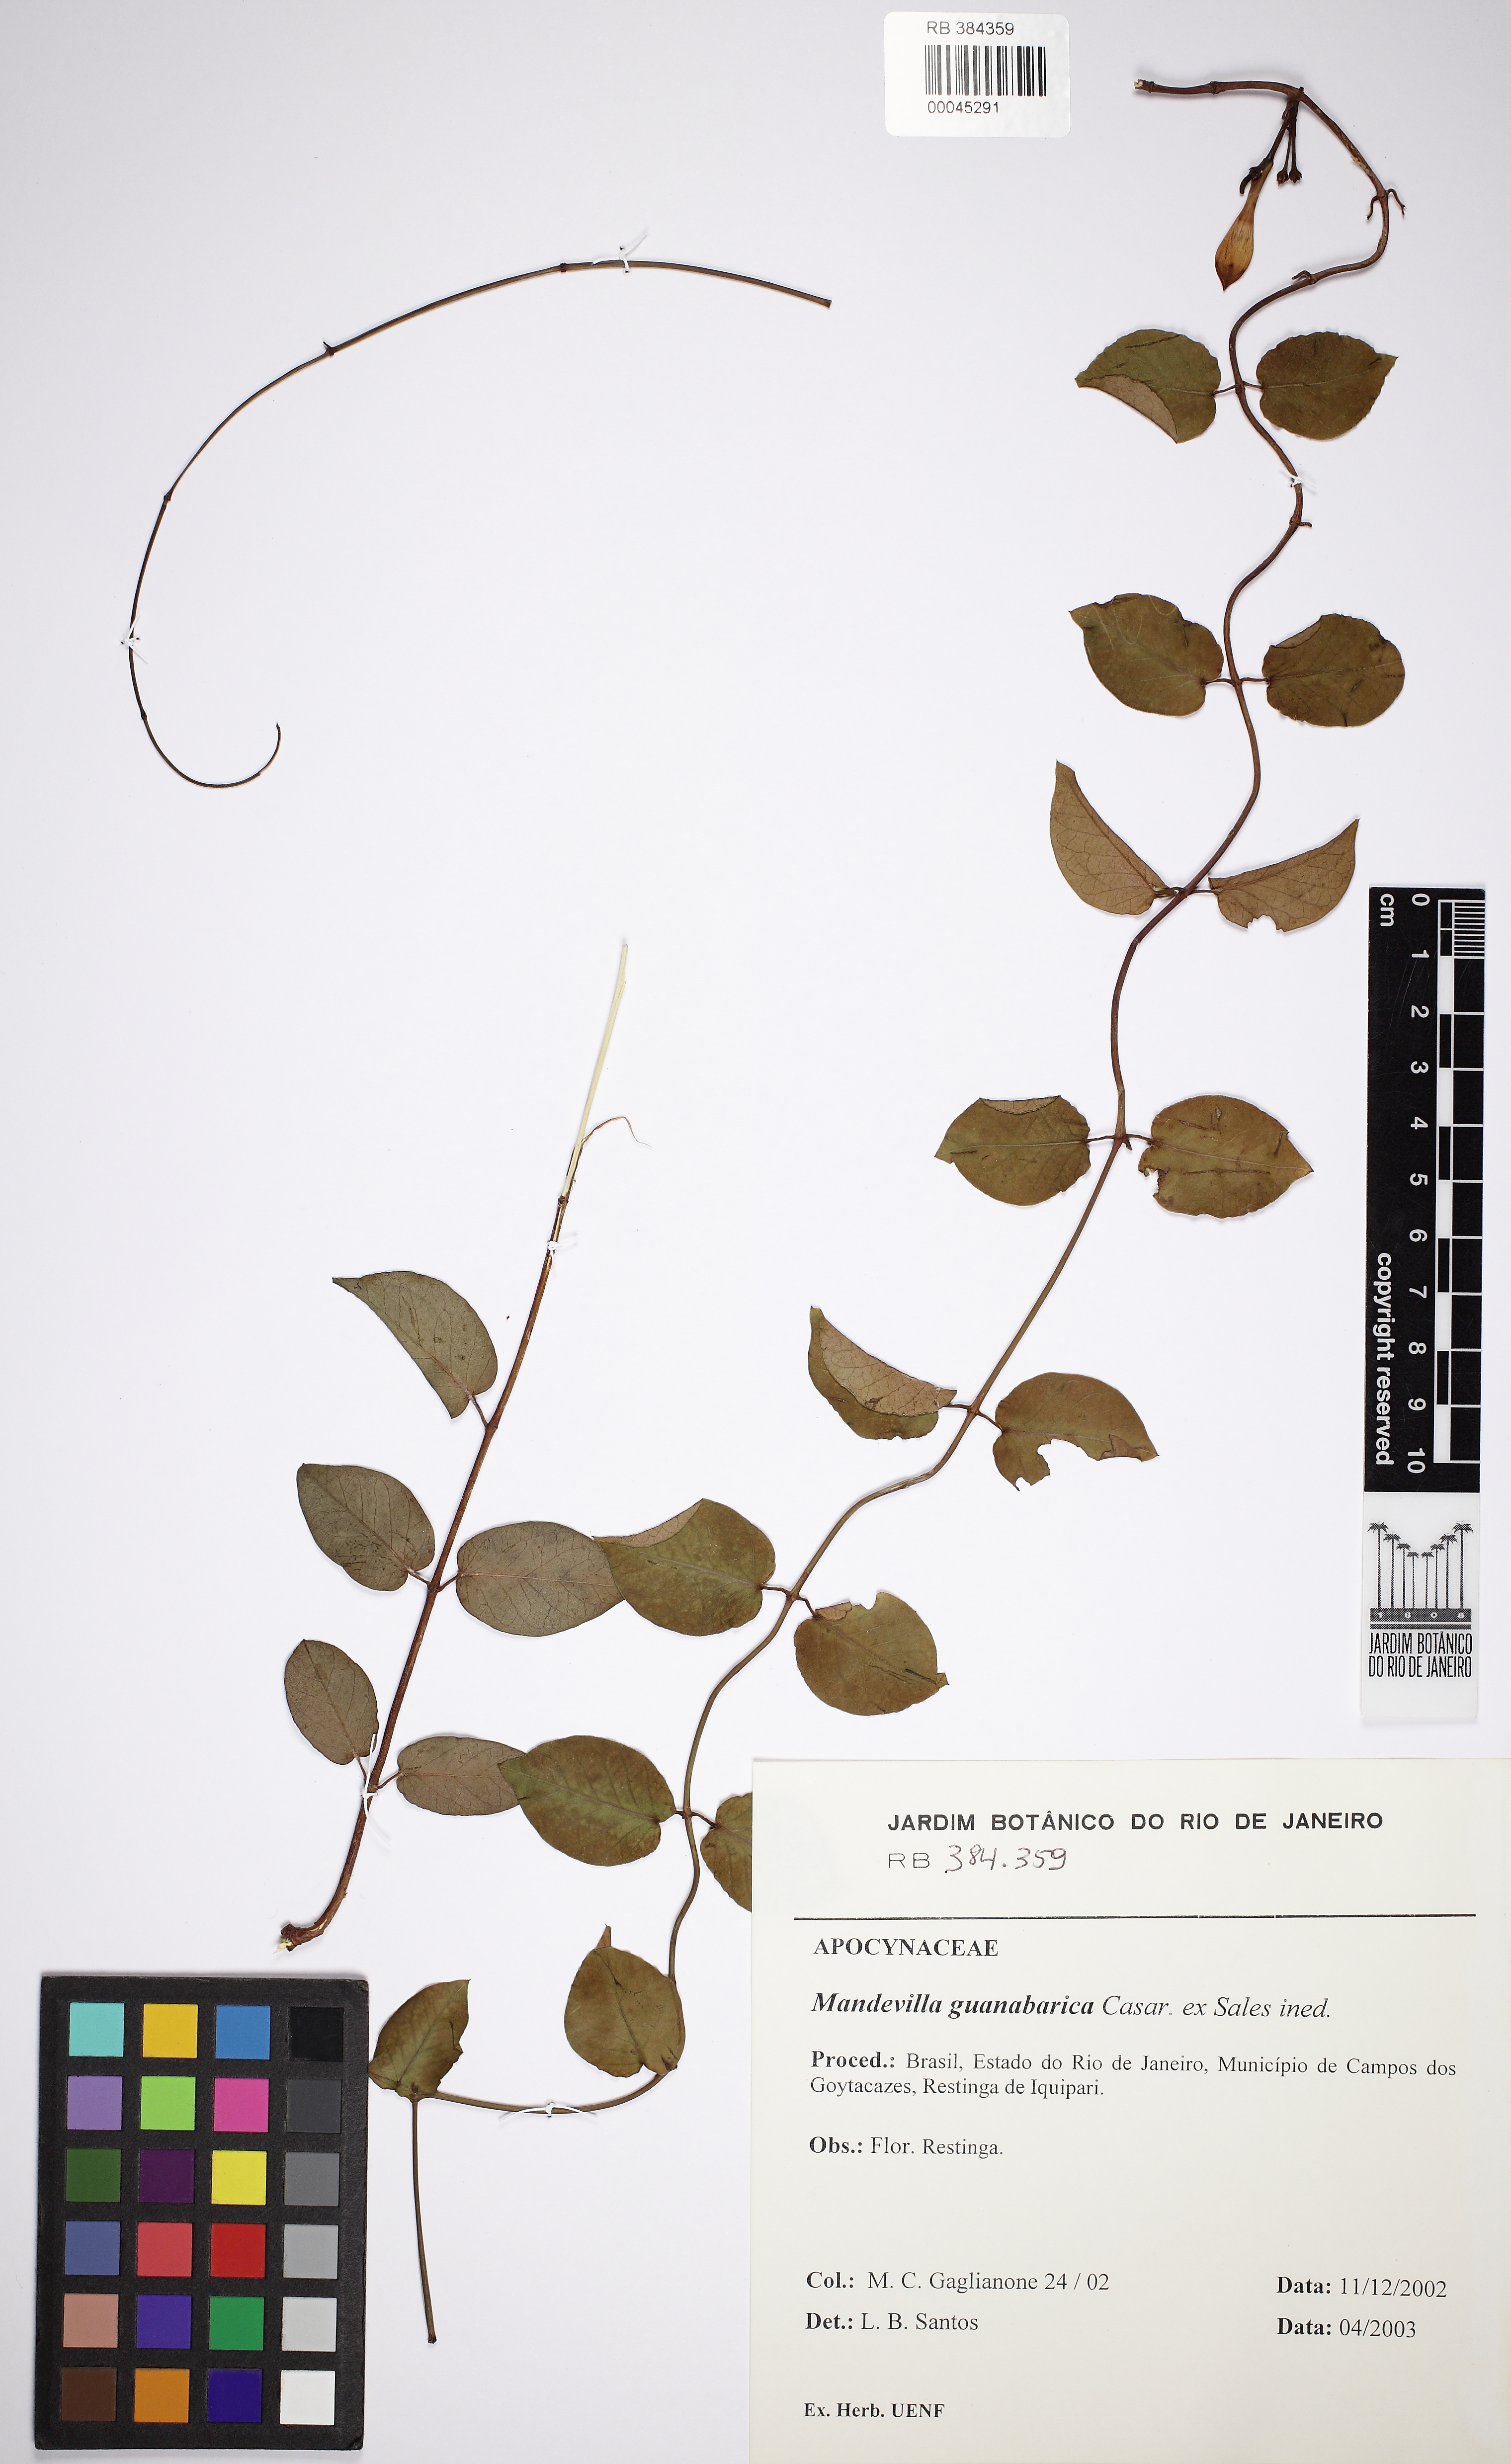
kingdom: Plantae
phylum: Tracheophyta
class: Magnoliopsida
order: Gentianales
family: Apocynaceae
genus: Mandevilla
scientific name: Mandevilla guanabarica
